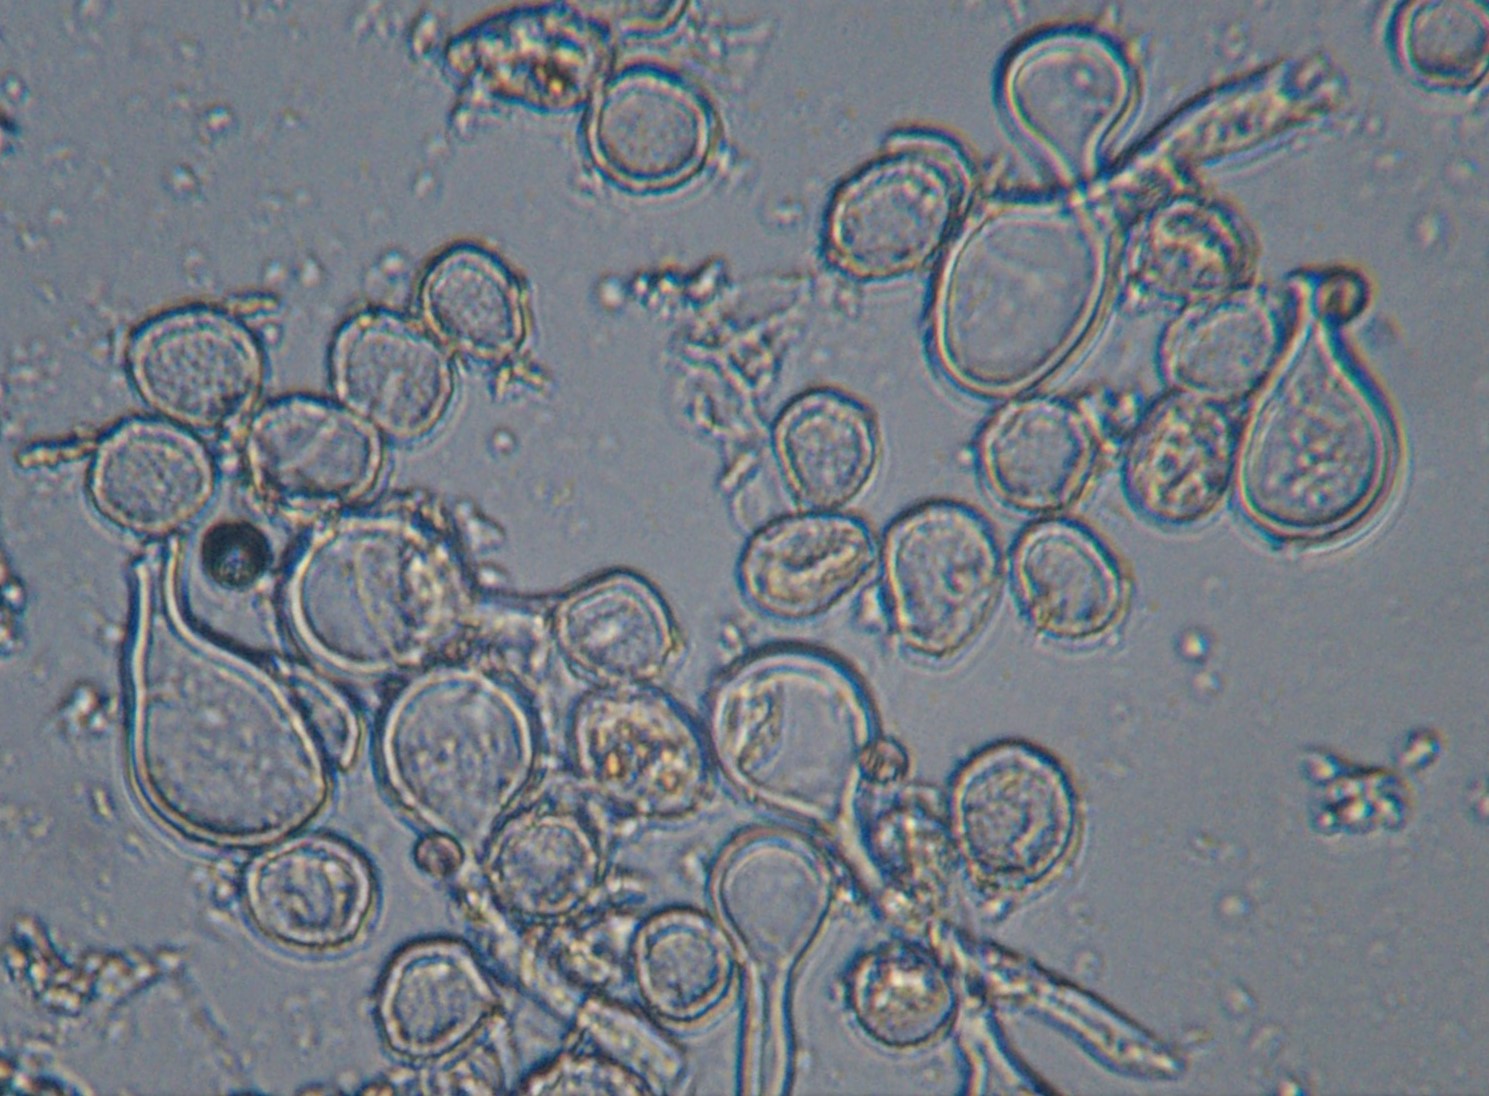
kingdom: Fungi
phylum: Basidiomycota
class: Pucciniomycetes
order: Pucciniales
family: Melampsoraceae
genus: Melampsora
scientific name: Melampsora euphorbiae
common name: vortemælk-skorperust
